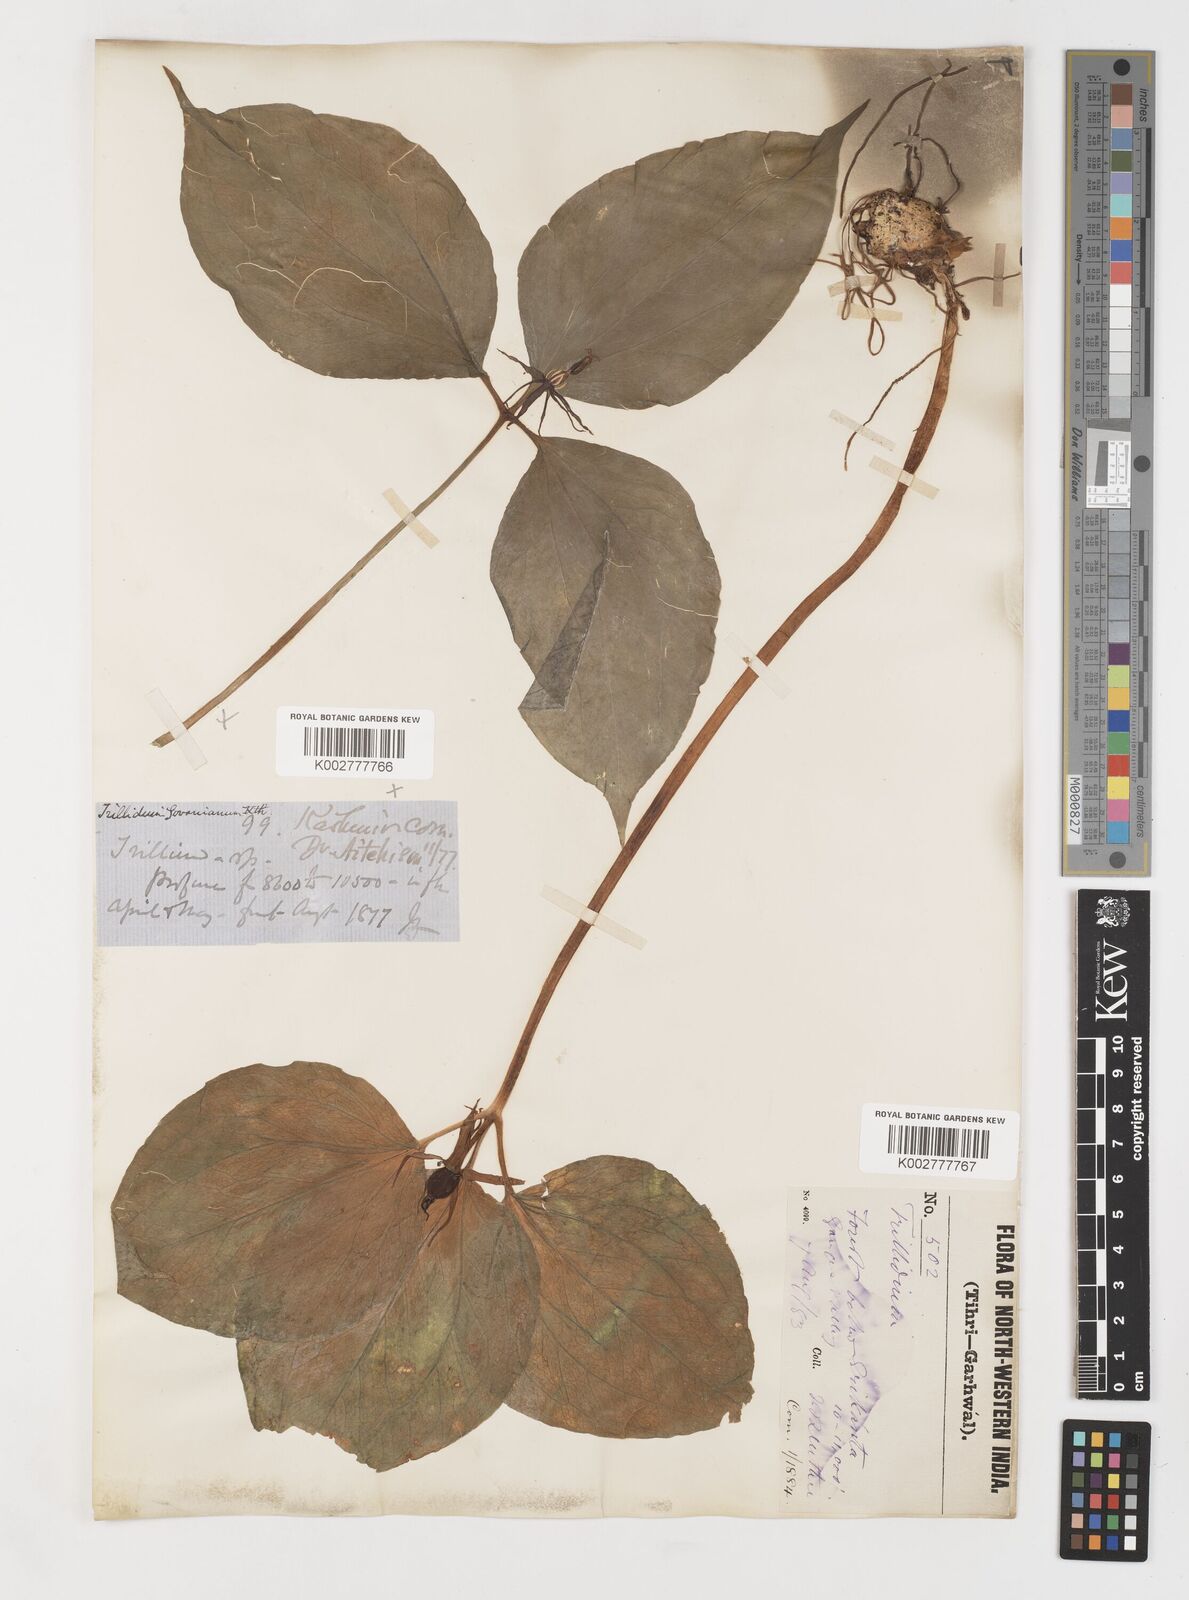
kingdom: Plantae
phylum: Tracheophyta
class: Liliopsida
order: Liliales
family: Melanthiaceae
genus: Trillium
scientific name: Trillium govanianum
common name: Himalayan trillium
